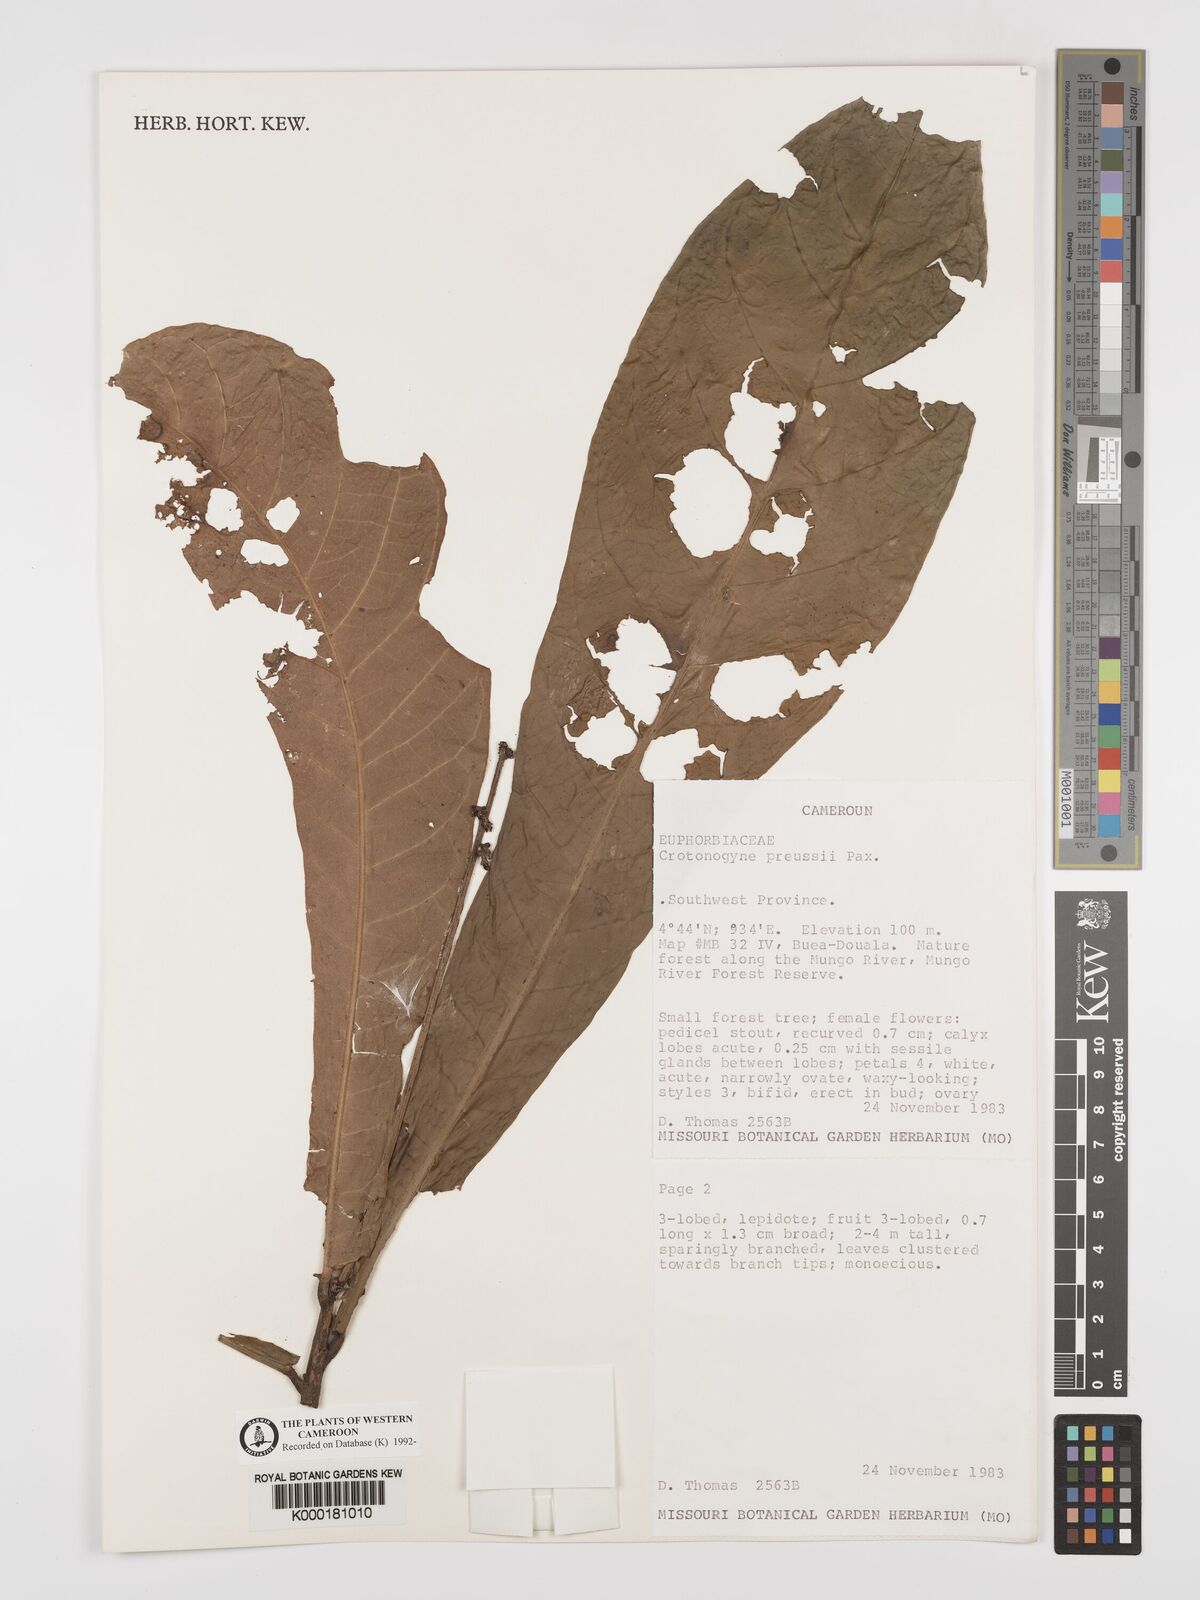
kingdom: Plantae
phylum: Tracheophyta
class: Magnoliopsida
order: Malpighiales
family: Euphorbiaceae
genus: Crotonogyne
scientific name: Crotonogyne preussii
